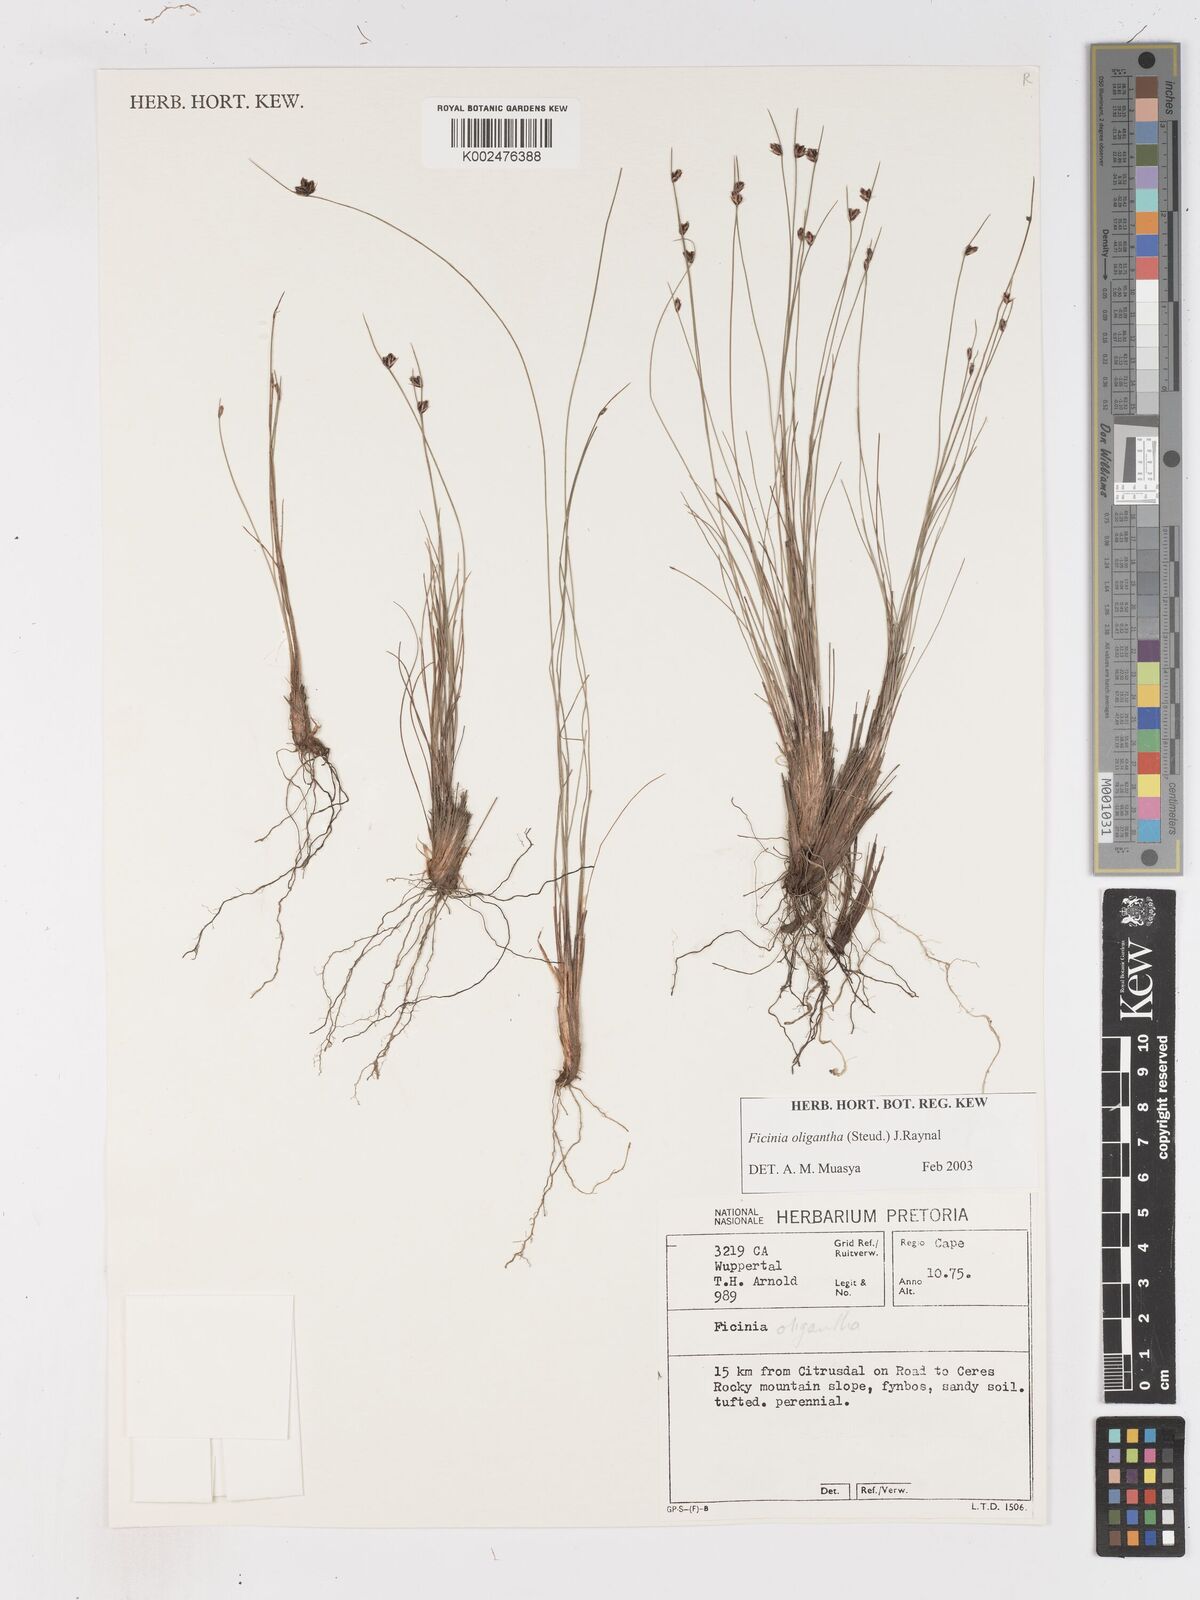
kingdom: Plantae
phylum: Tracheophyta
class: Liliopsida
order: Poales
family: Cyperaceae
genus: Ficinia
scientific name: Ficinia oligantha
